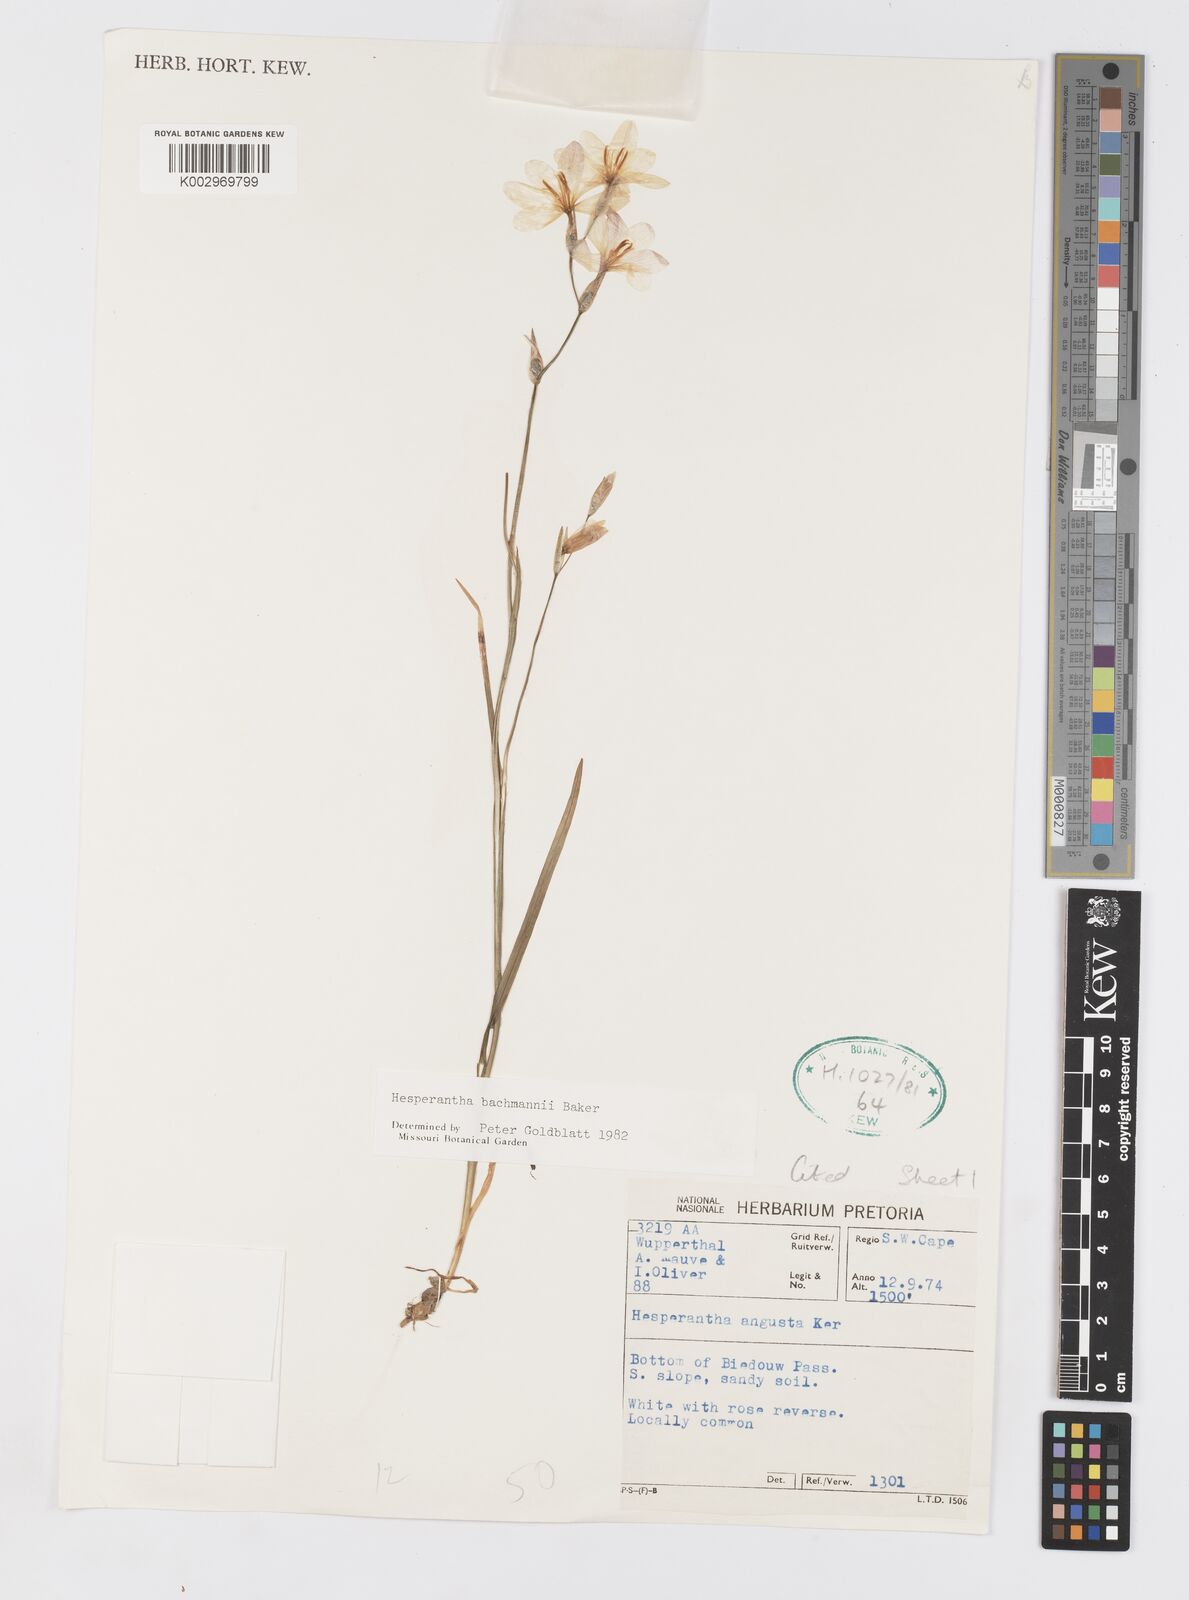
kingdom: Plantae
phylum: Tracheophyta
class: Liliopsida
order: Asparagales
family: Iridaceae
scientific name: Iridaceae
